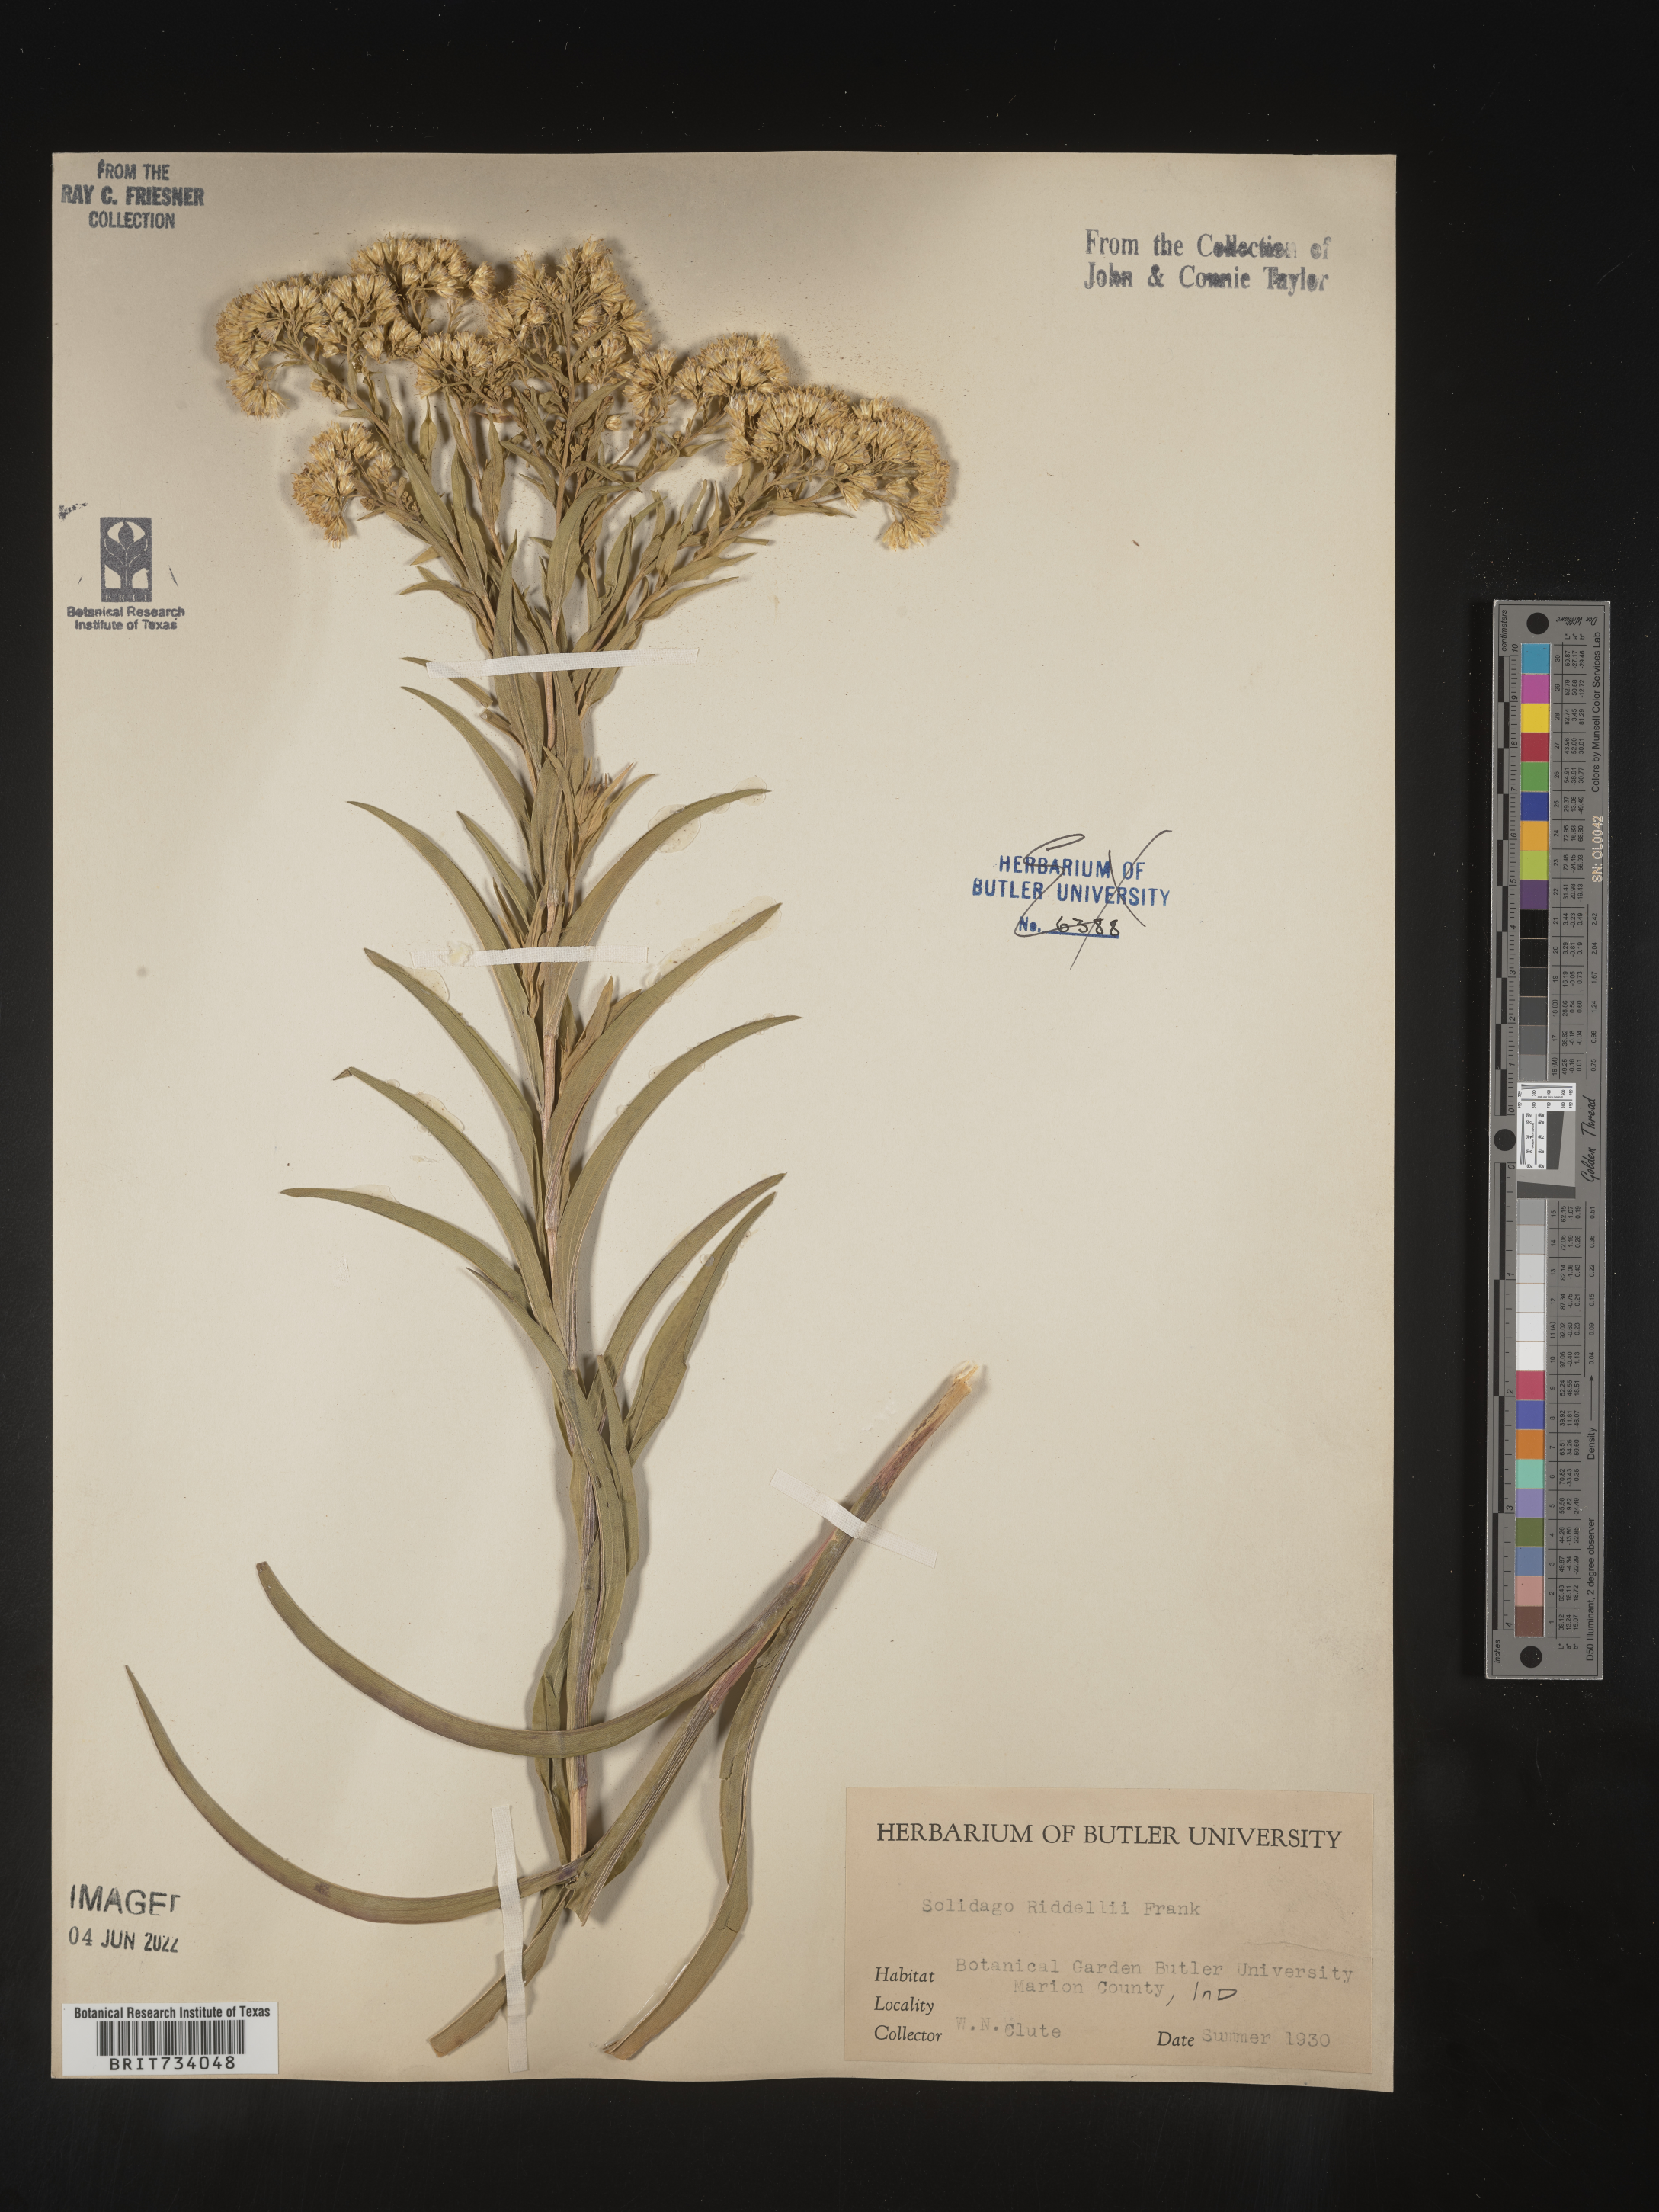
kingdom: Plantae
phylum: Tracheophyta
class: Magnoliopsida
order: Asterales
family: Asteraceae
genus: Solidago
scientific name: Solidago riddellii
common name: Riddell's goldenrod
